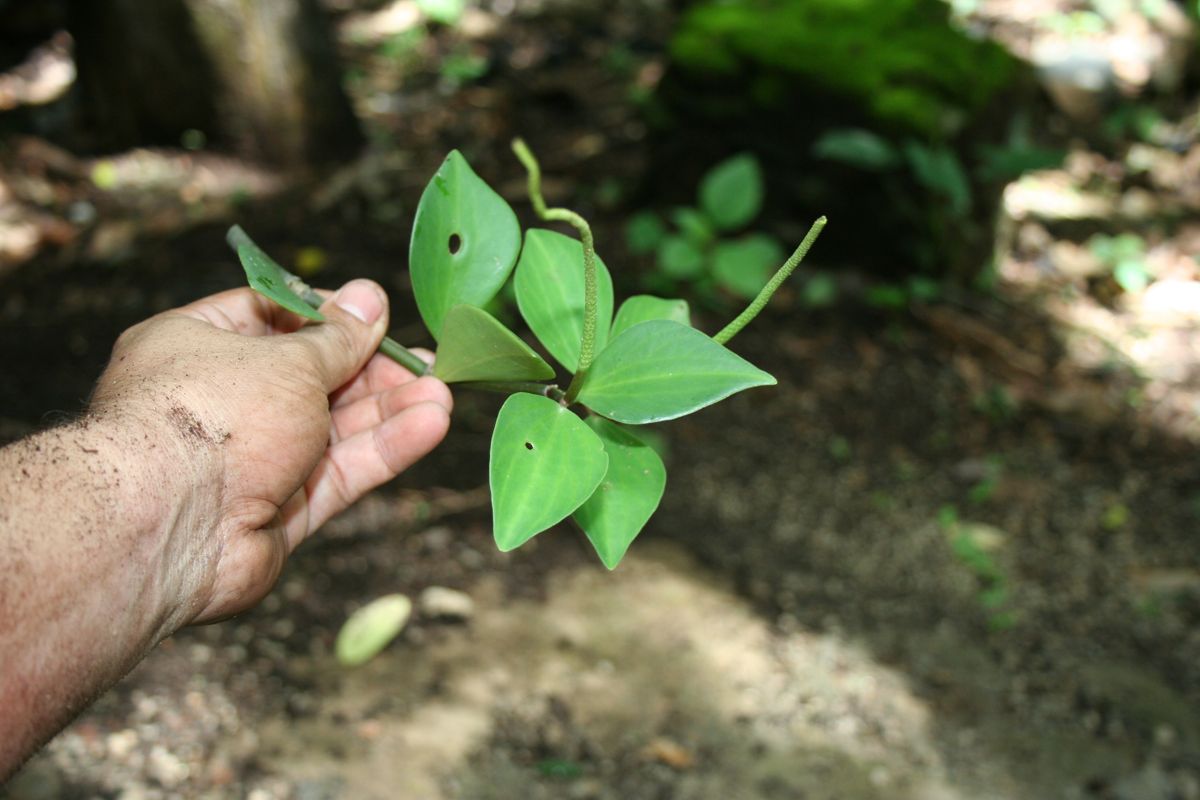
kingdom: Plantae
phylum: Tracheophyta
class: Magnoliopsida
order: Piperales
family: Piperaceae
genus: Peperomia
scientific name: Peperomia pseudopereskiifolia
